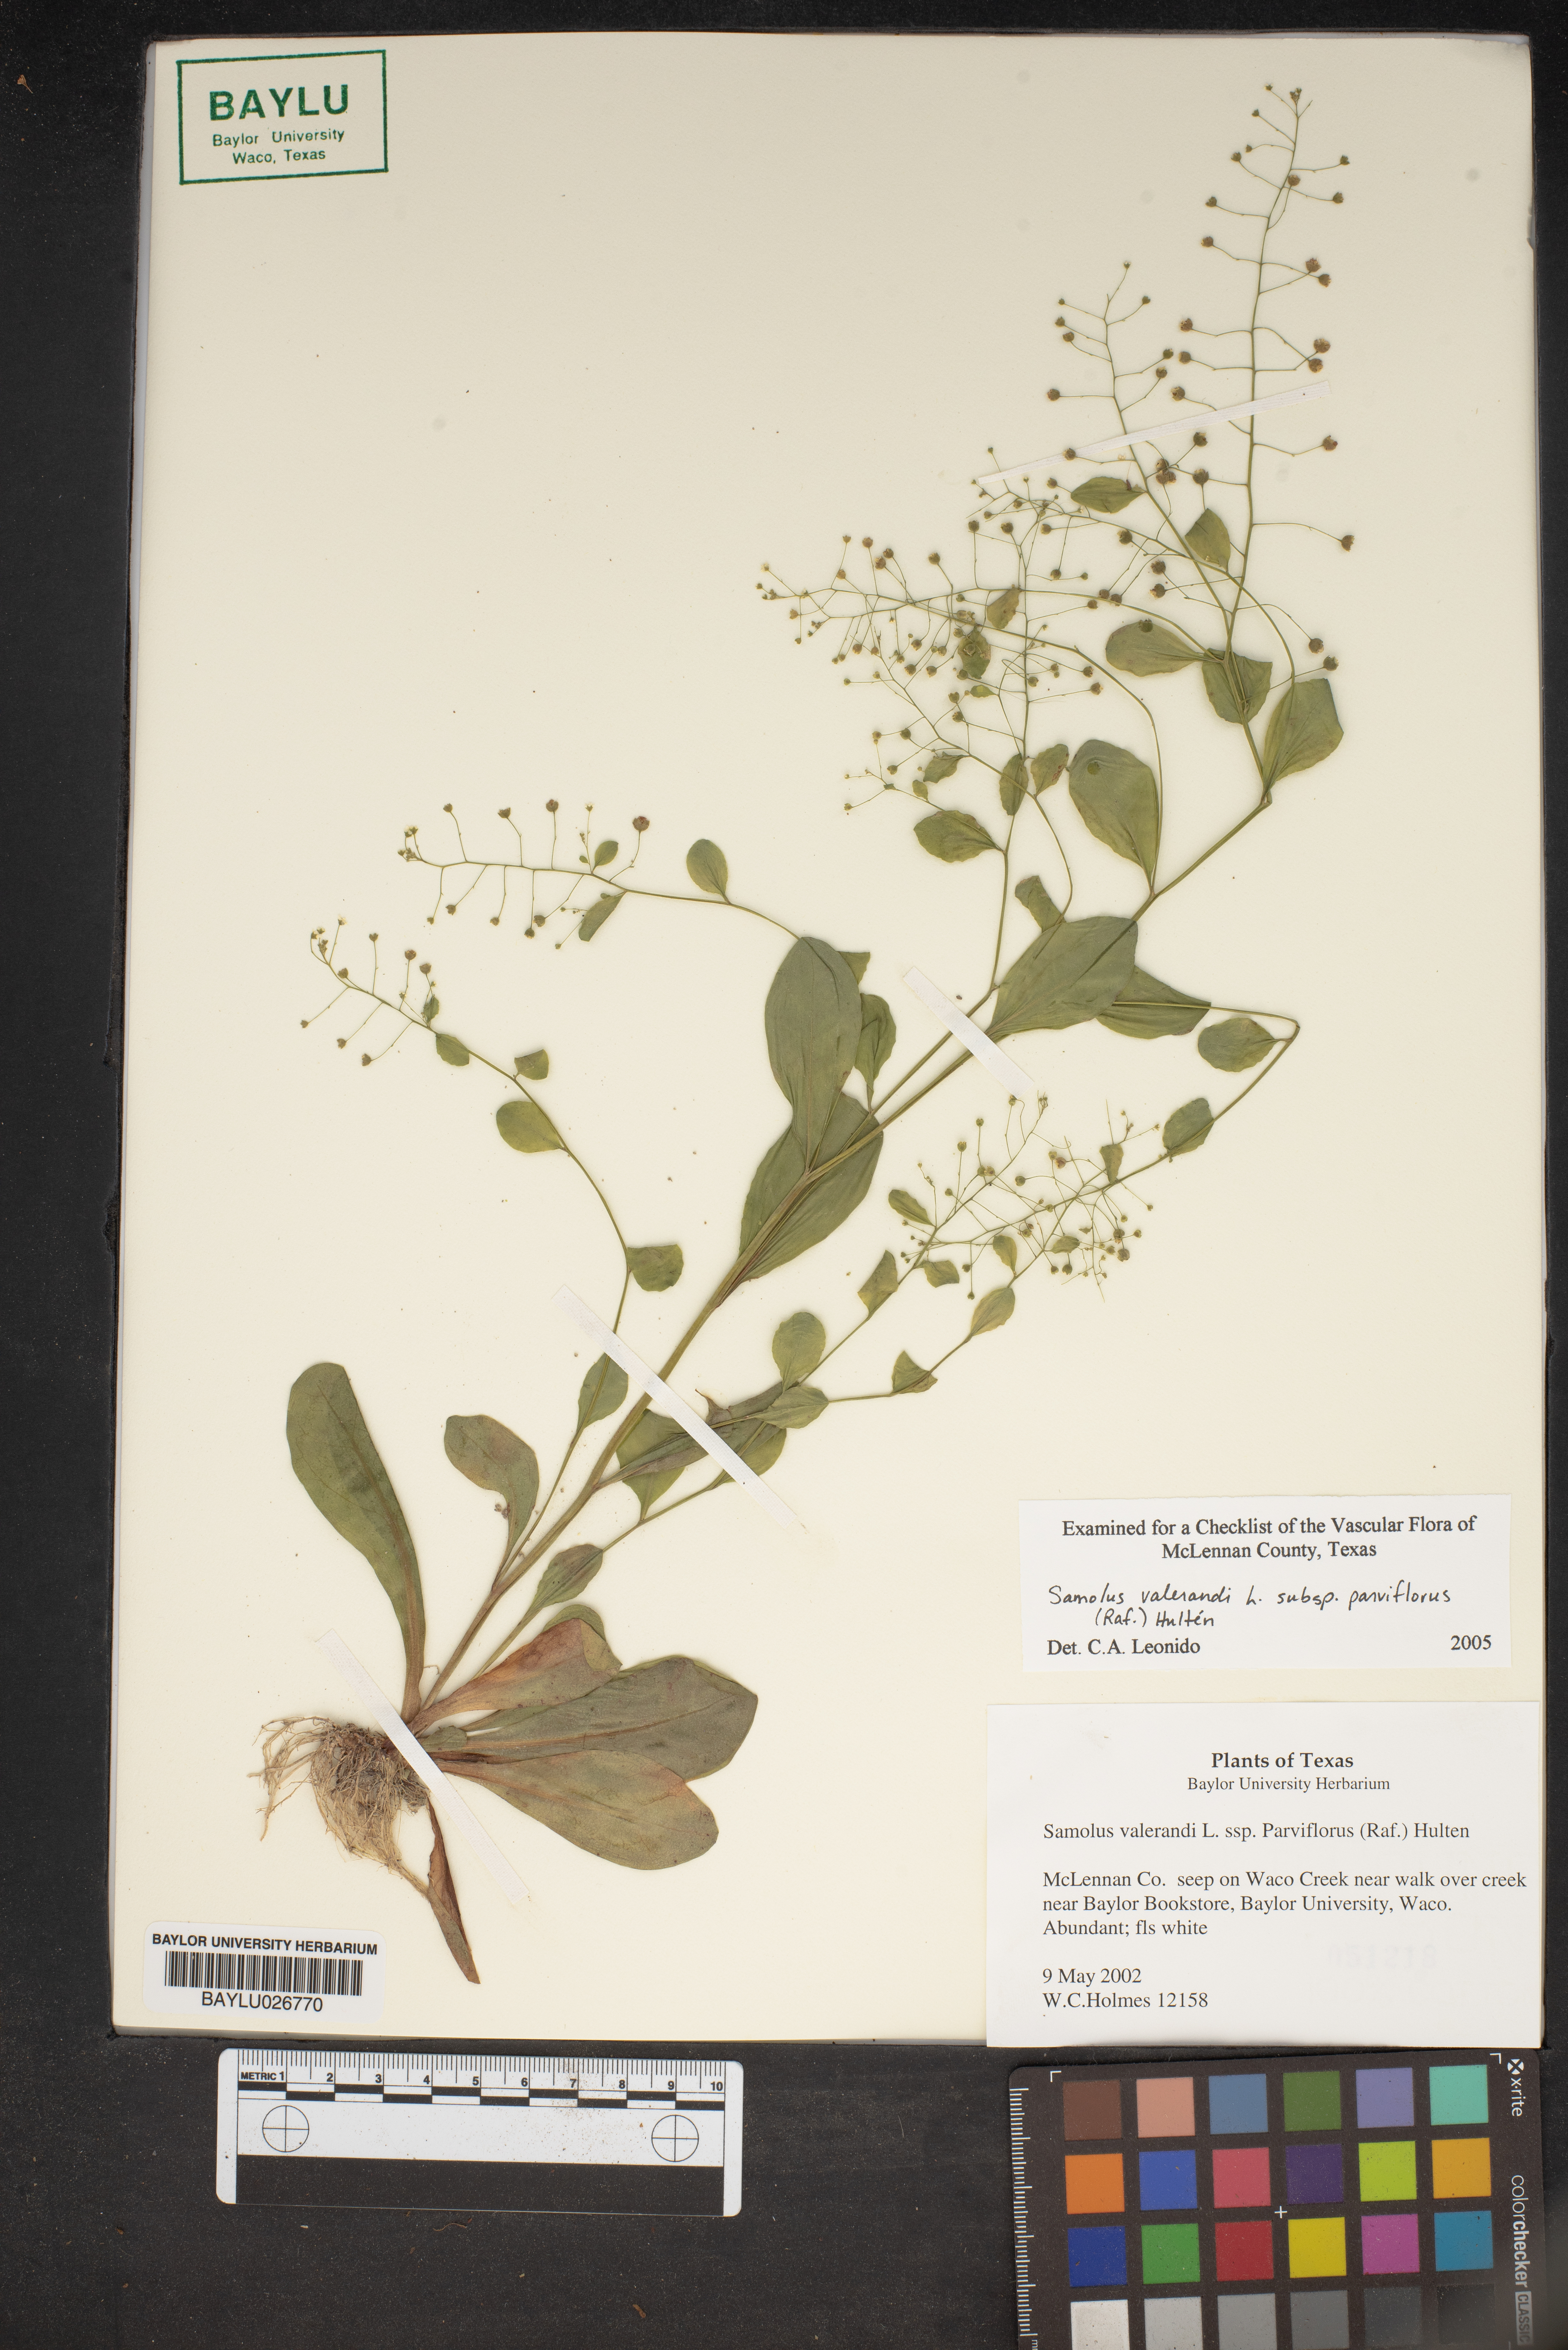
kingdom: Plantae
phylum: Tracheophyta
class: Magnoliopsida
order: Ericales
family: Primulaceae
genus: Samolus
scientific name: Samolus parviflorus
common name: False water pimpernel
